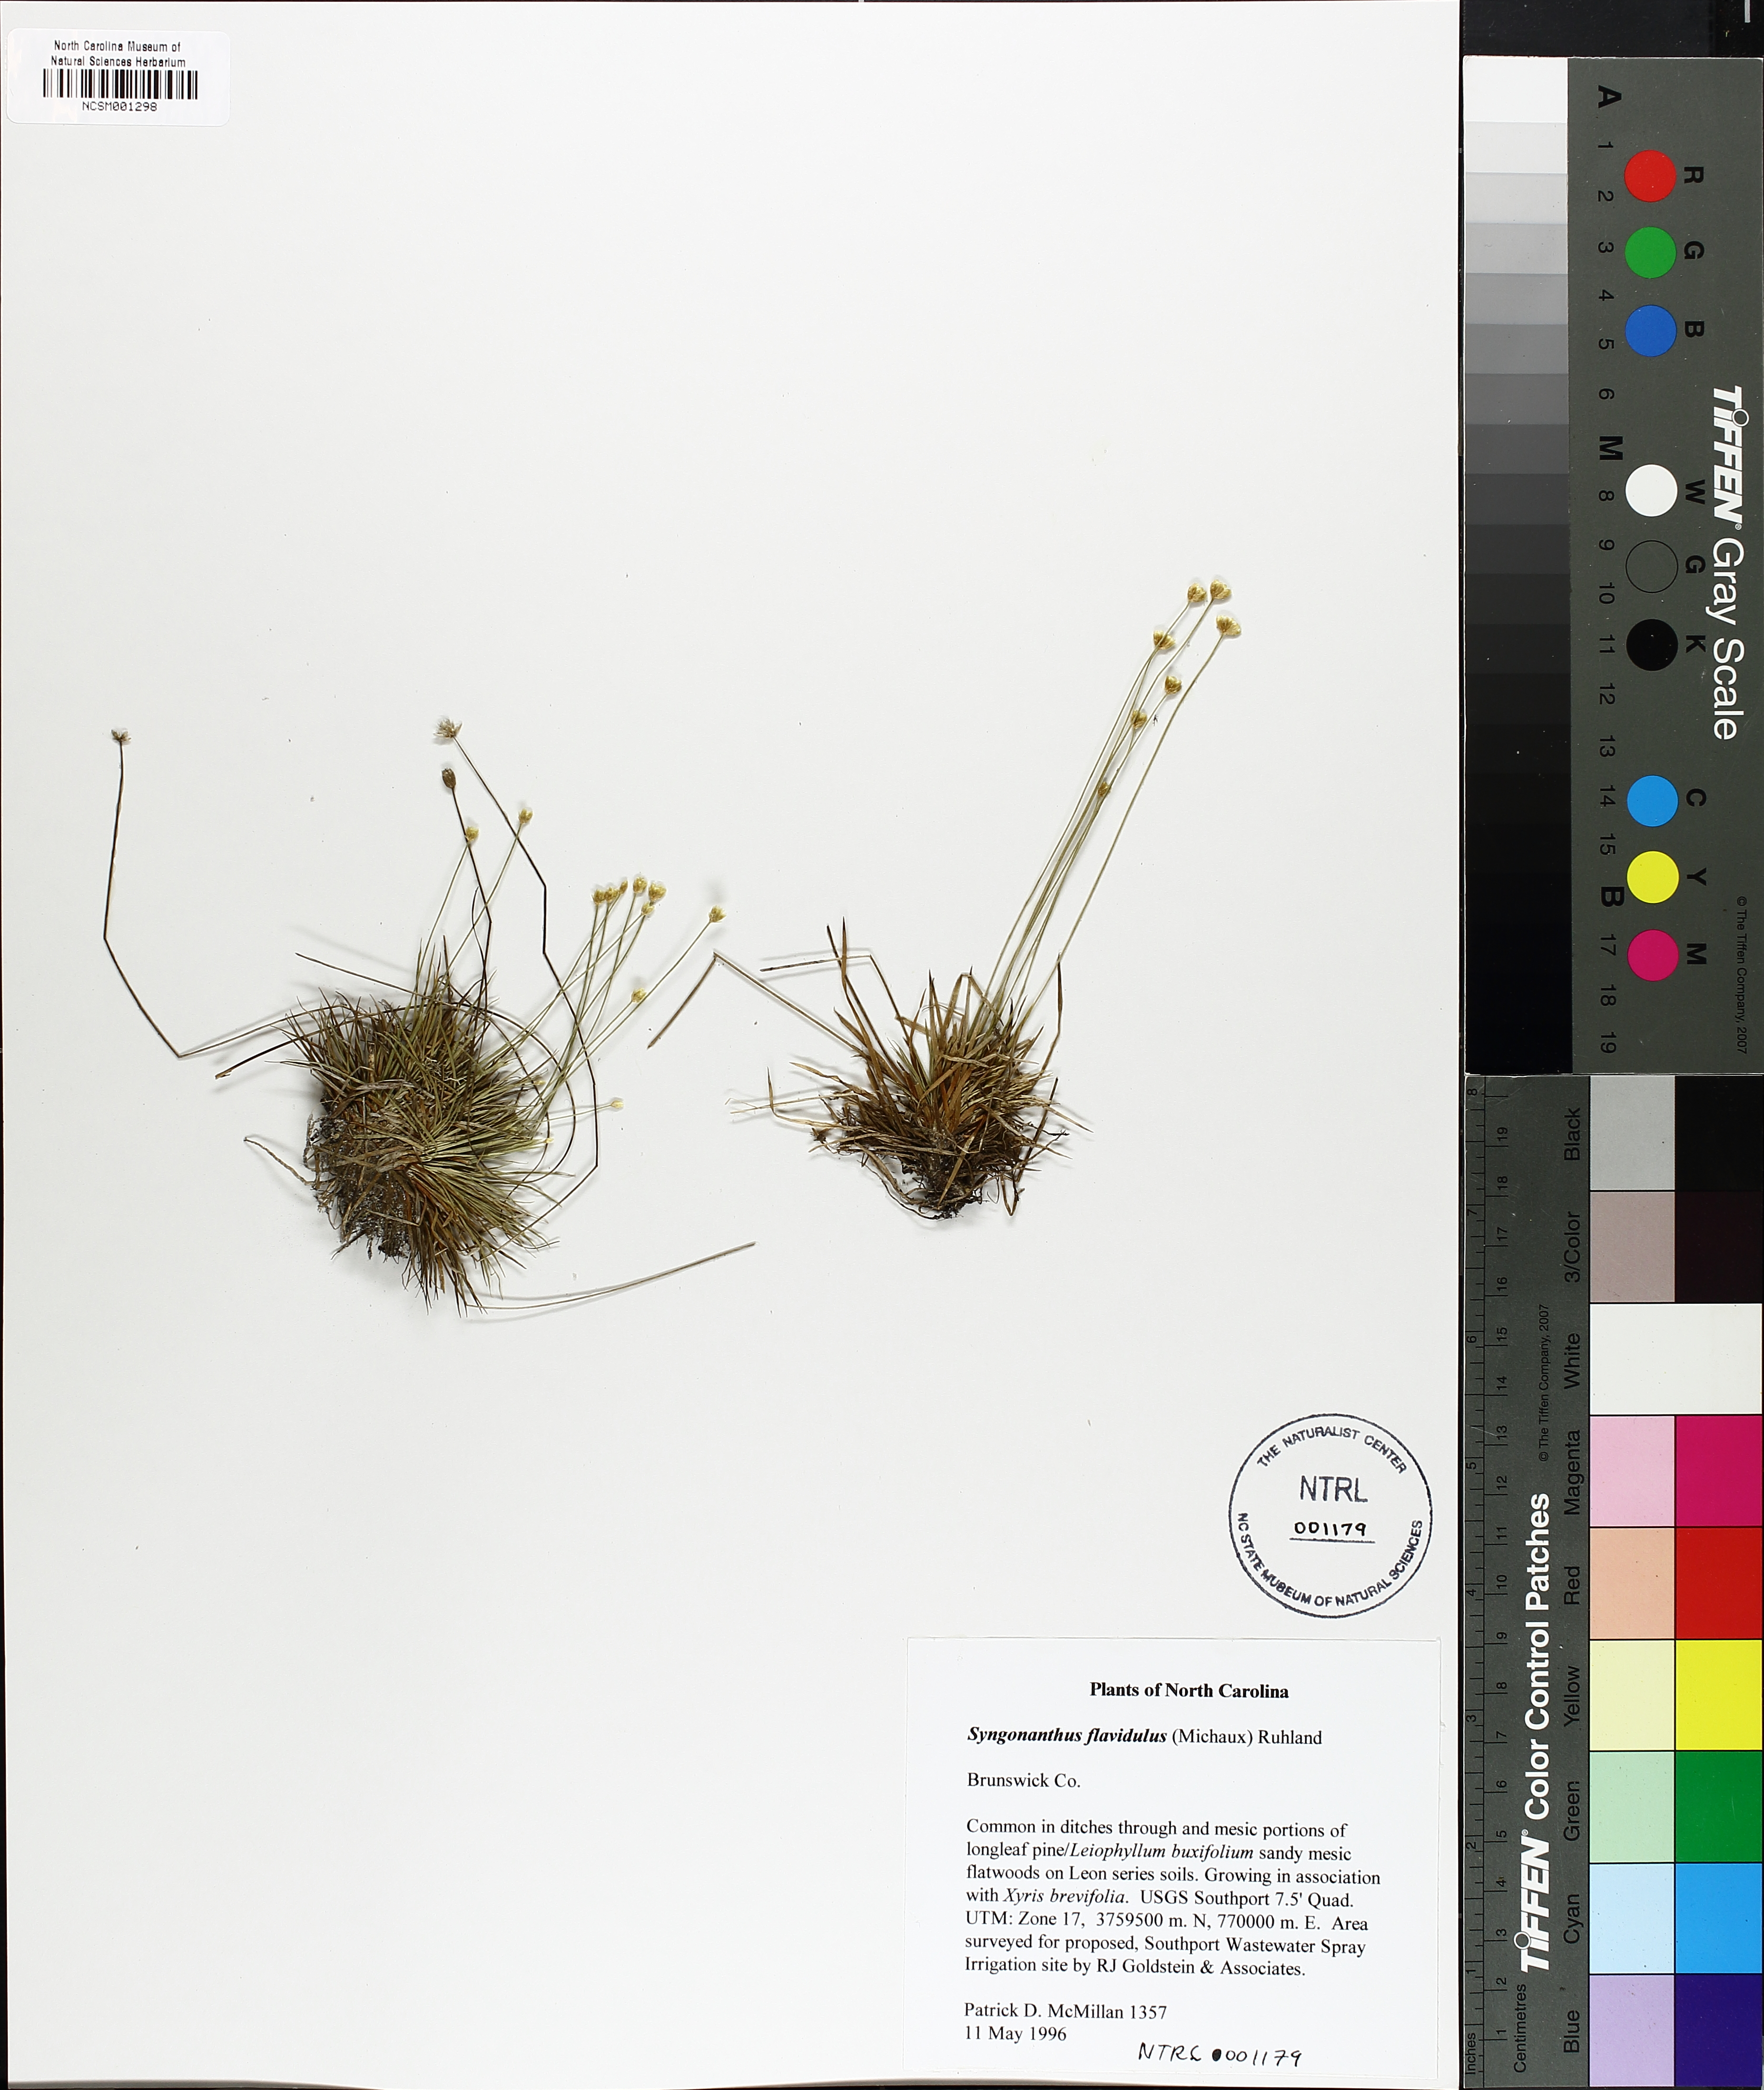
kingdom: Plantae
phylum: Tracheophyta
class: Liliopsida
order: Poales
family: Eriocaulaceae
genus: Syngonanthus
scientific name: Syngonanthus flavidulus
